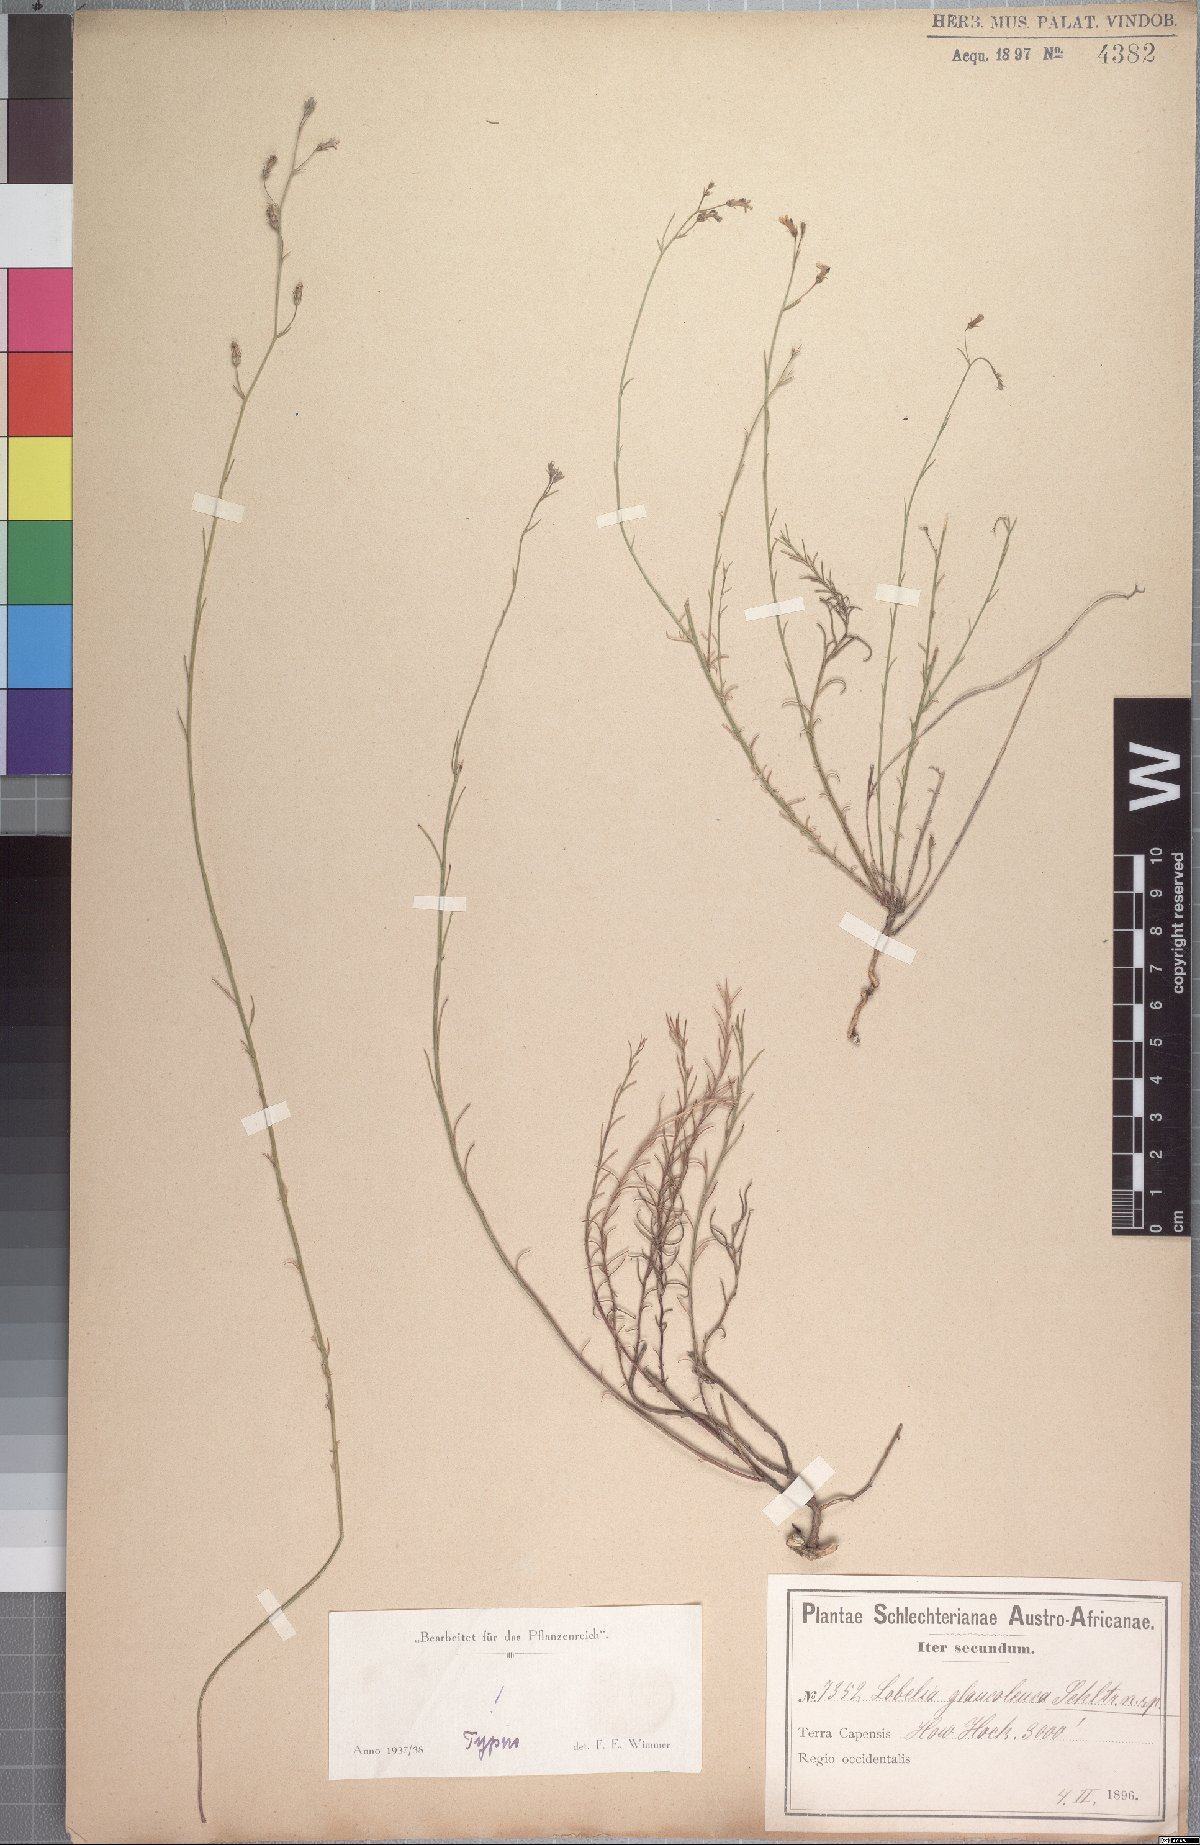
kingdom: Plantae
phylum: Tracheophyta
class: Magnoliopsida
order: Asterales
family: Campanulaceae
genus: Lobelia
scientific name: Lobelia setacea
